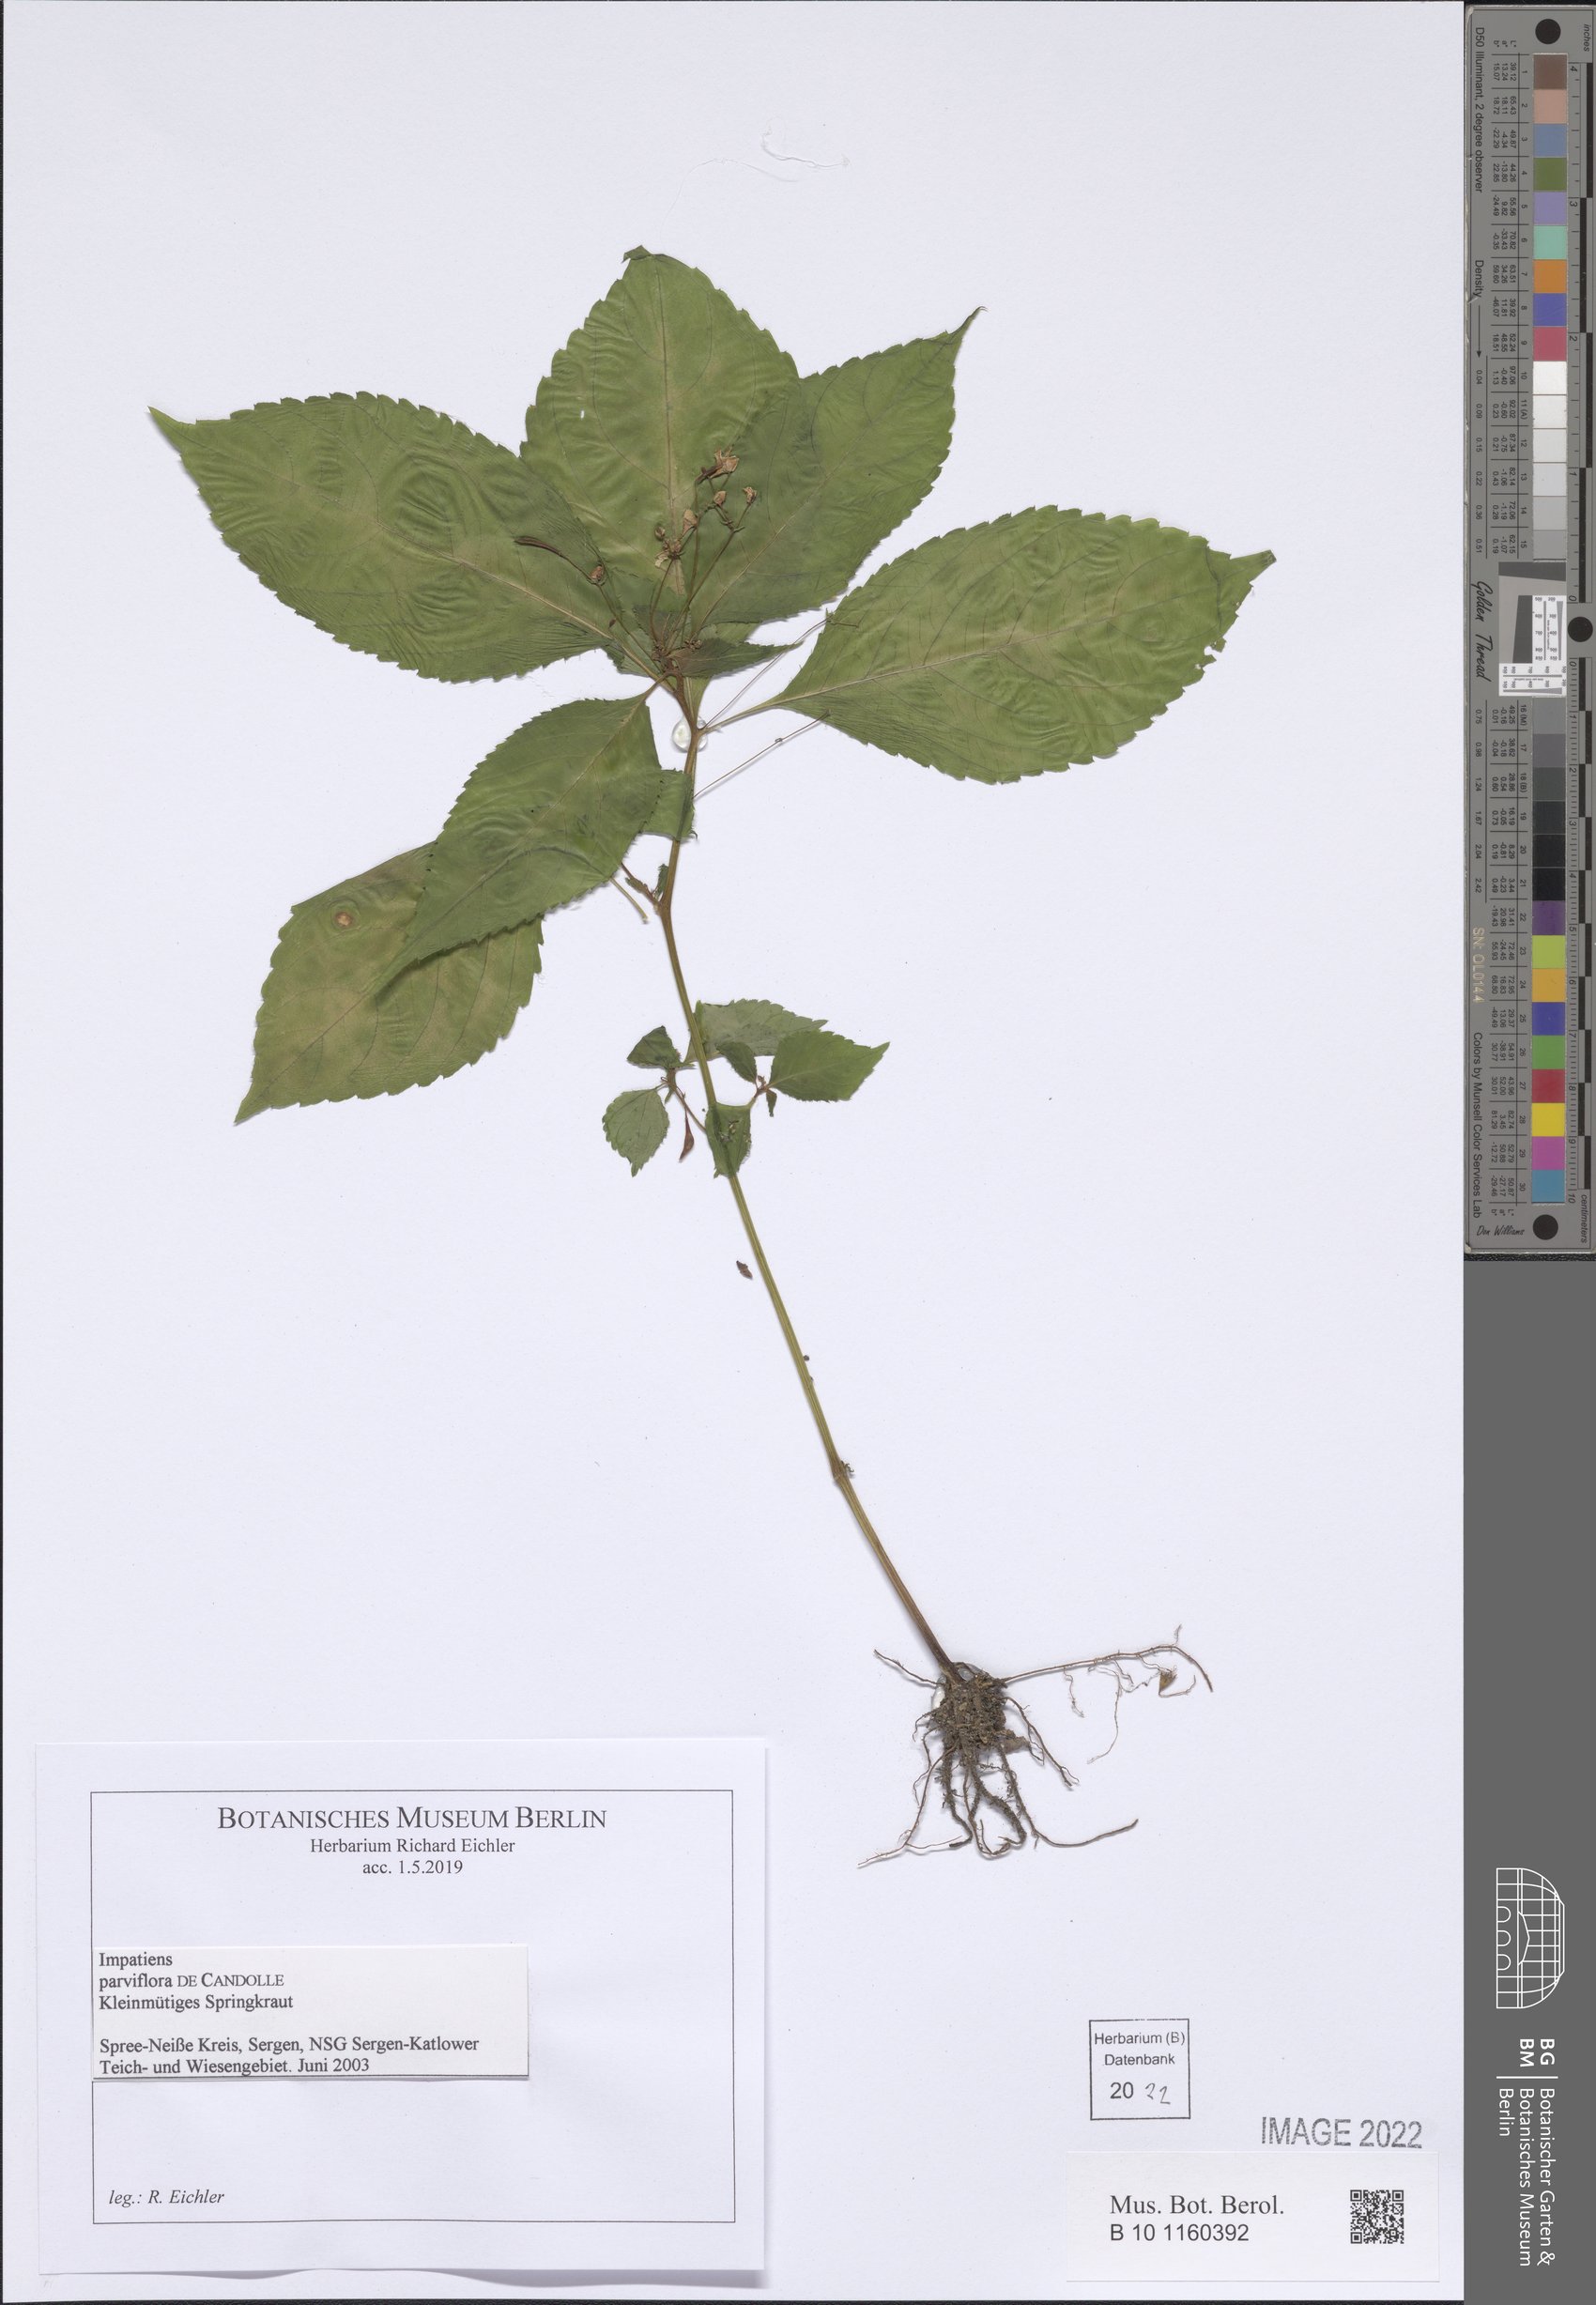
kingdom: Plantae
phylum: Tracheophyta
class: Magnoliopsida
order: Ericales
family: Balsaminaceae
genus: Impatiens
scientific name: Impatiens parviflora
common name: Small balsam
